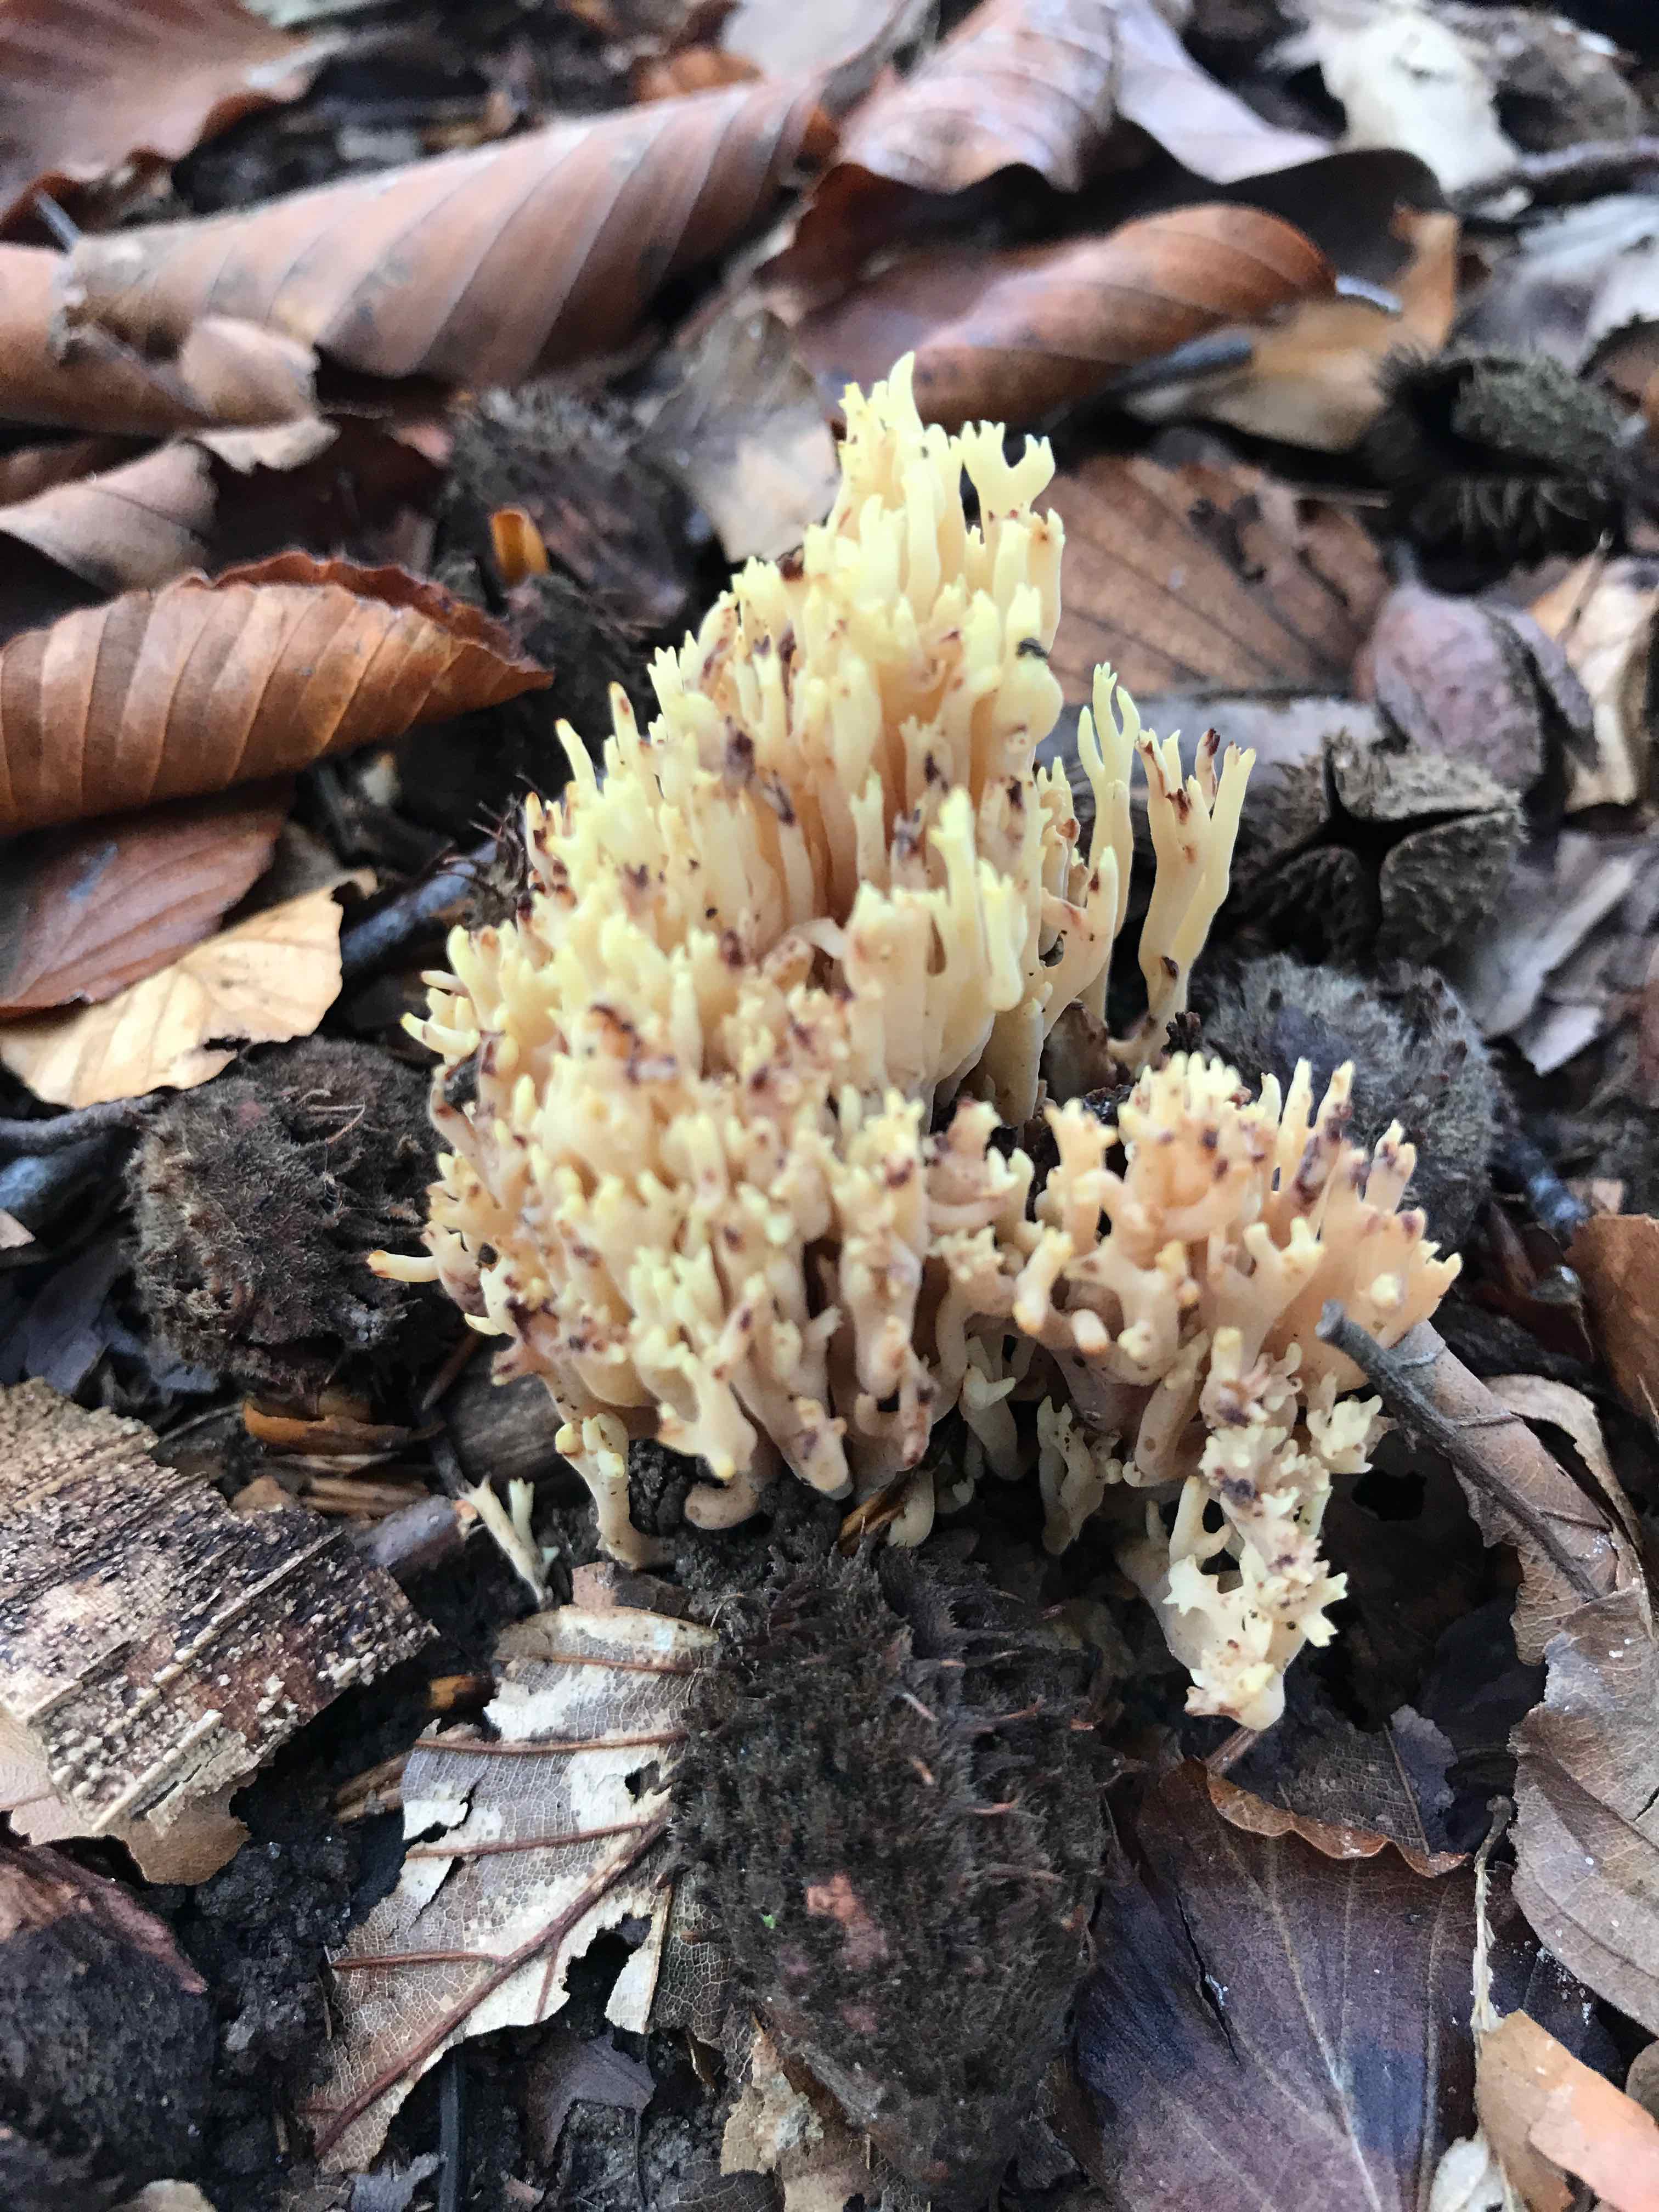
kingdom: Fungi
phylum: Basidiomycota
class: Agaricomycetes
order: Gomphales
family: Gomphaceae
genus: Ramaria
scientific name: Ramaria stricta
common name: rank koralsvamp
